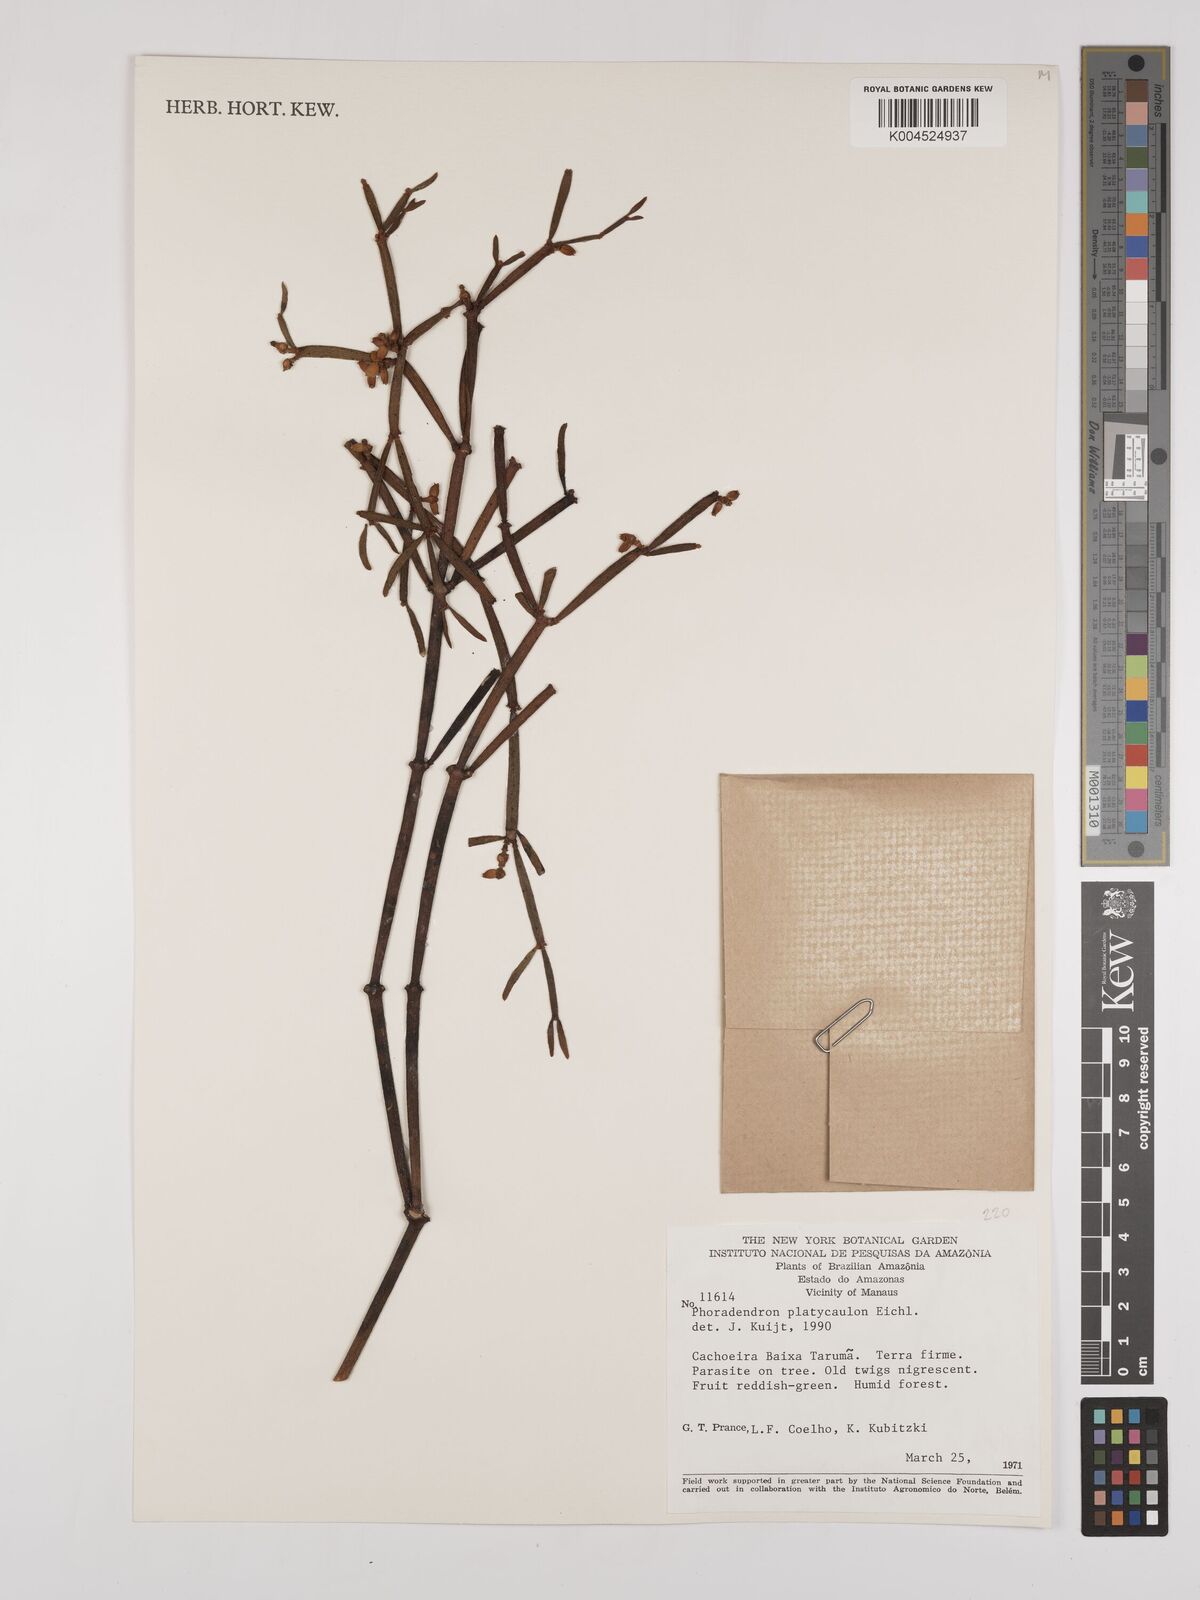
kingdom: Plantae
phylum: Tracheophyta
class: Magnoliopsida
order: Santalales
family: Viscaceae
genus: Phoradendron
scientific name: Phoradendron planiphyllum
